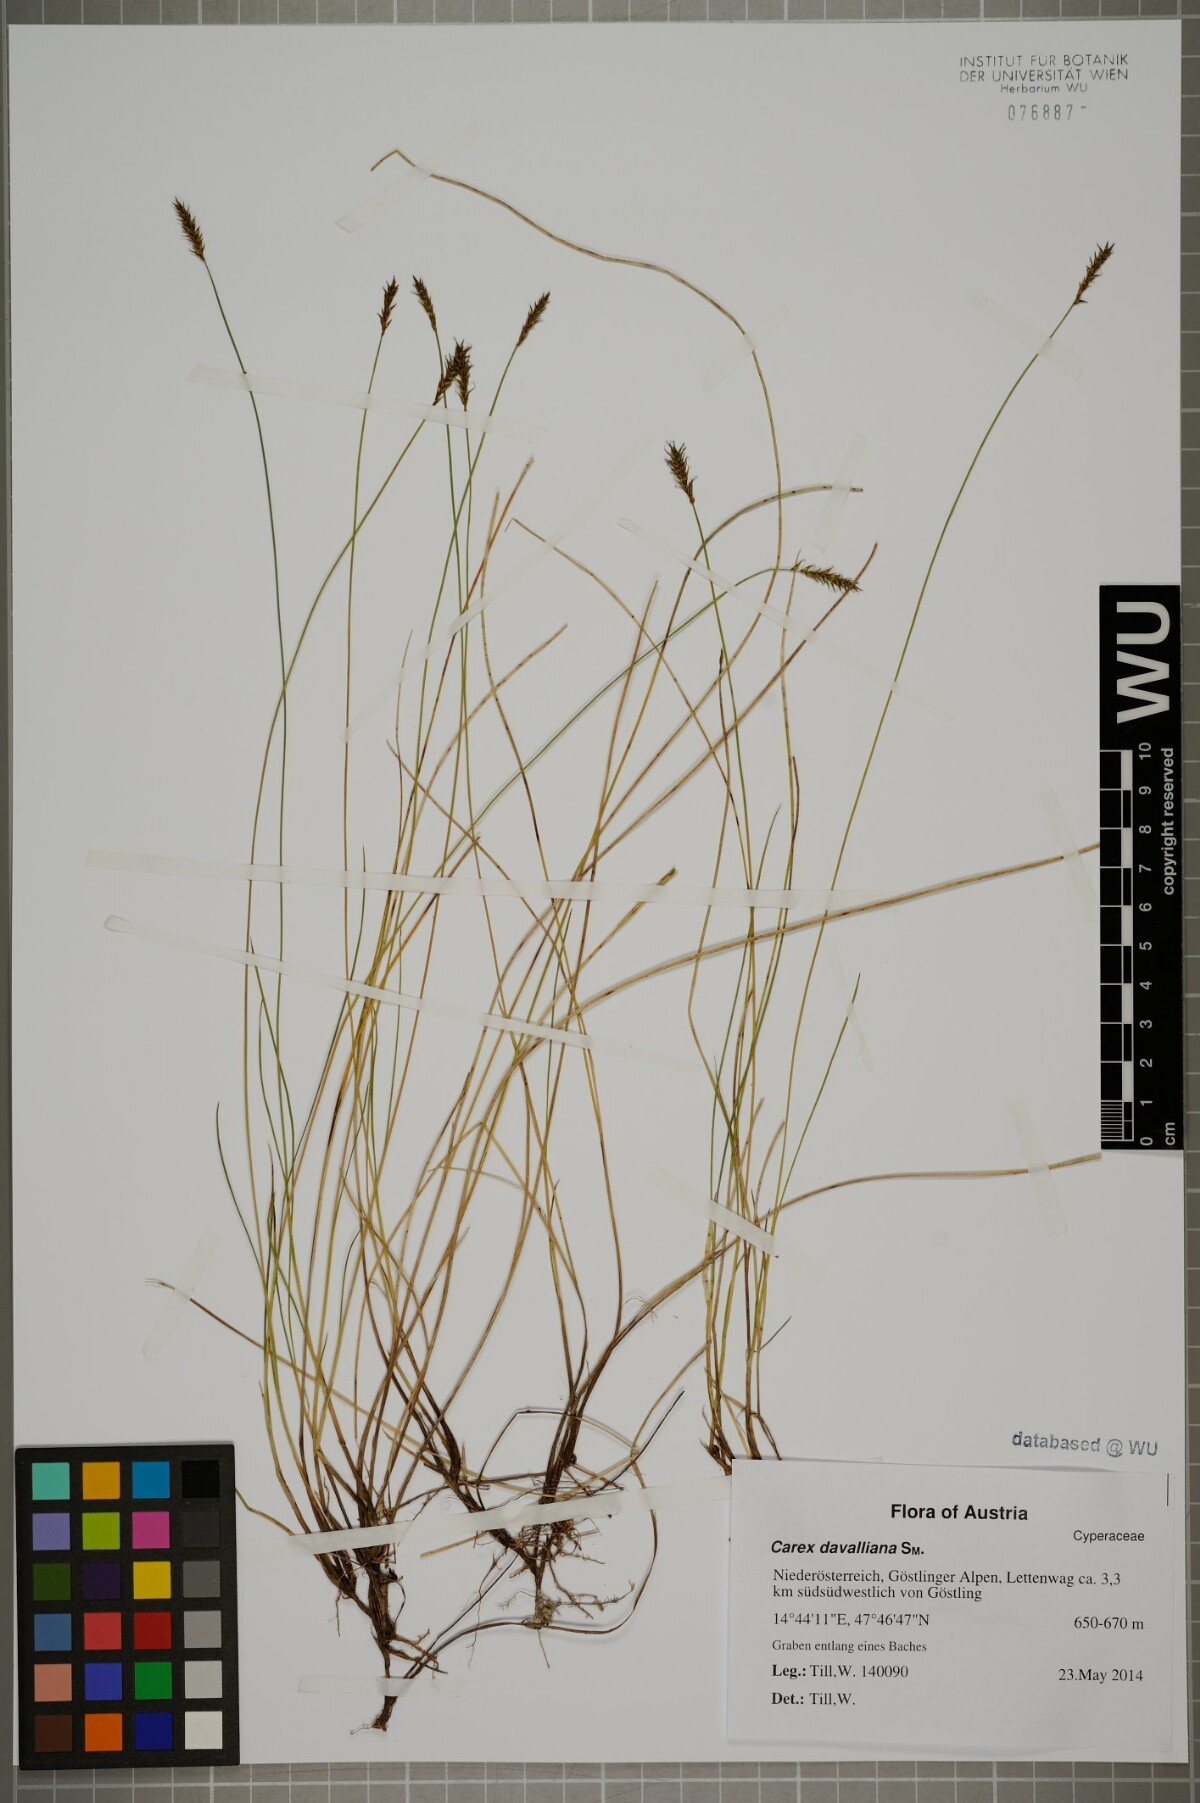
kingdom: Plantae
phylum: Tracheophyta
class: Liliopsida
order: Poales
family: Cyperaceae
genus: Carex
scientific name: Carex davalliana
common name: Davall's sedge
